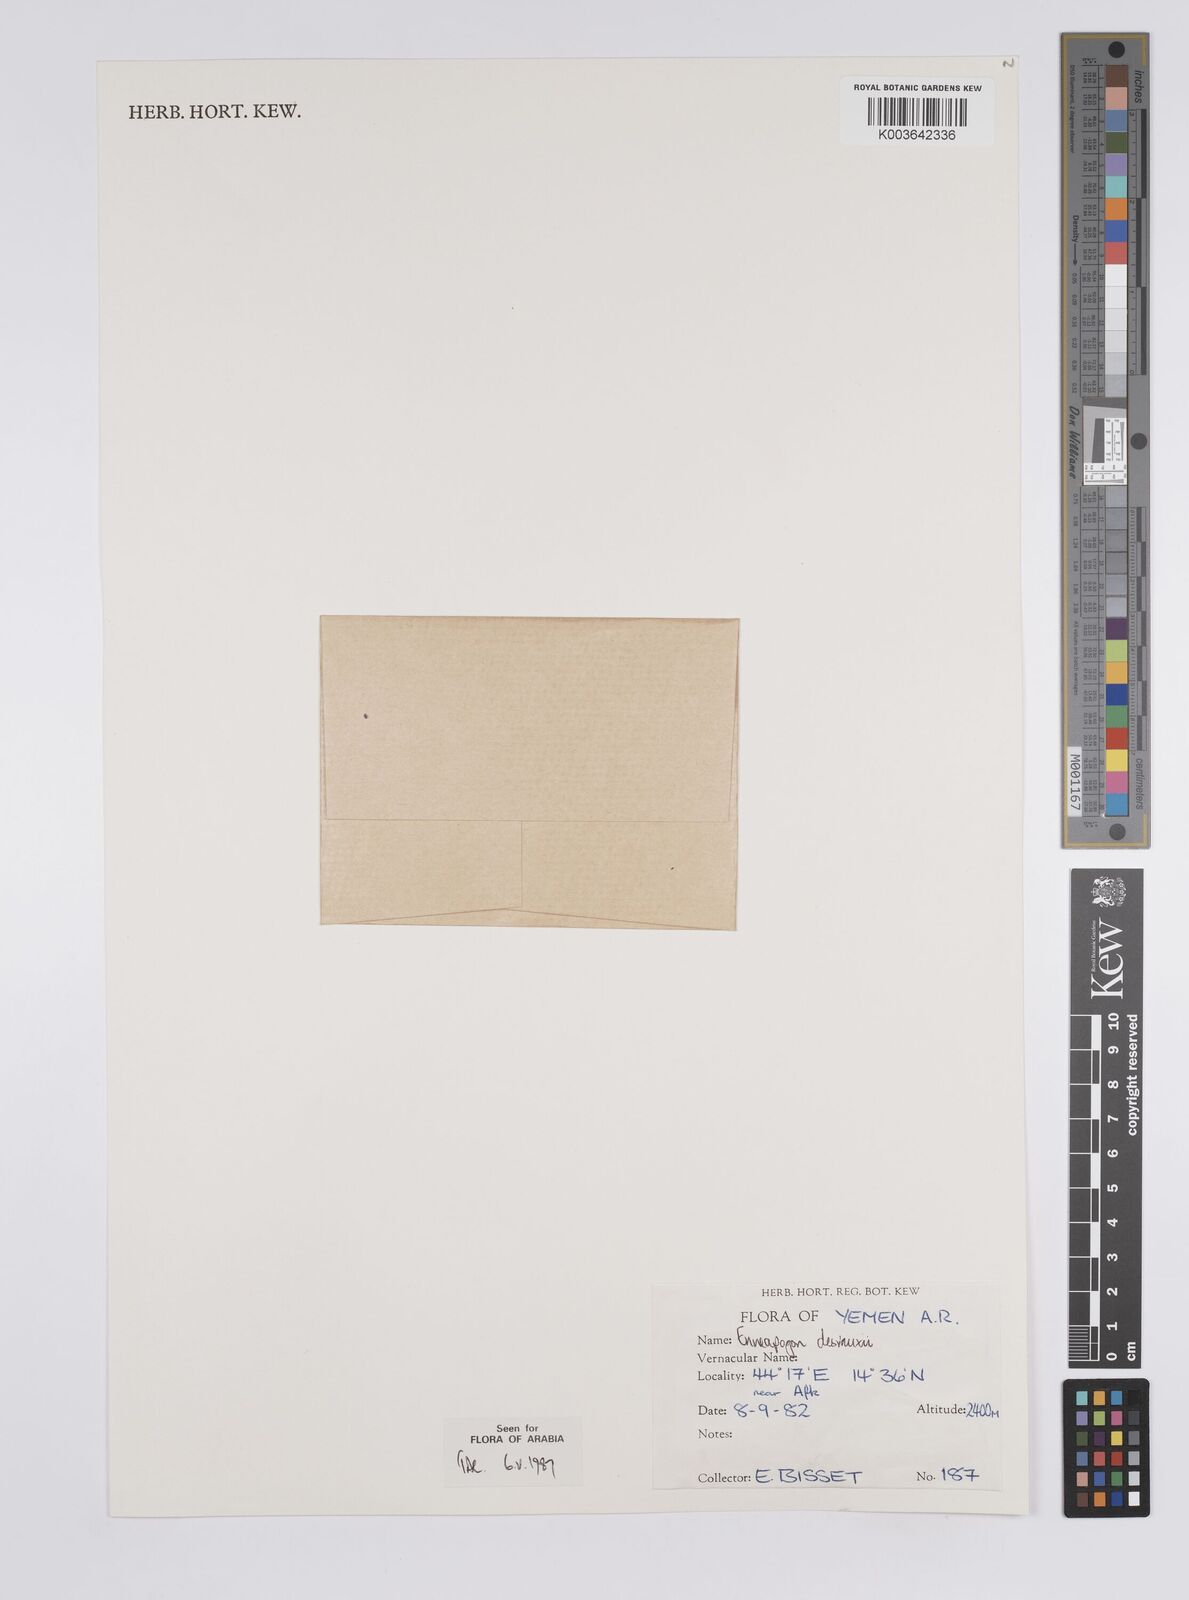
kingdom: Plantae
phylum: Tracheophyta
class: Liliopsida
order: Poales
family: Poaceae
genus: Enneapogon
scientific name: Enneapogon desvauxii
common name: Feather pappus grass
